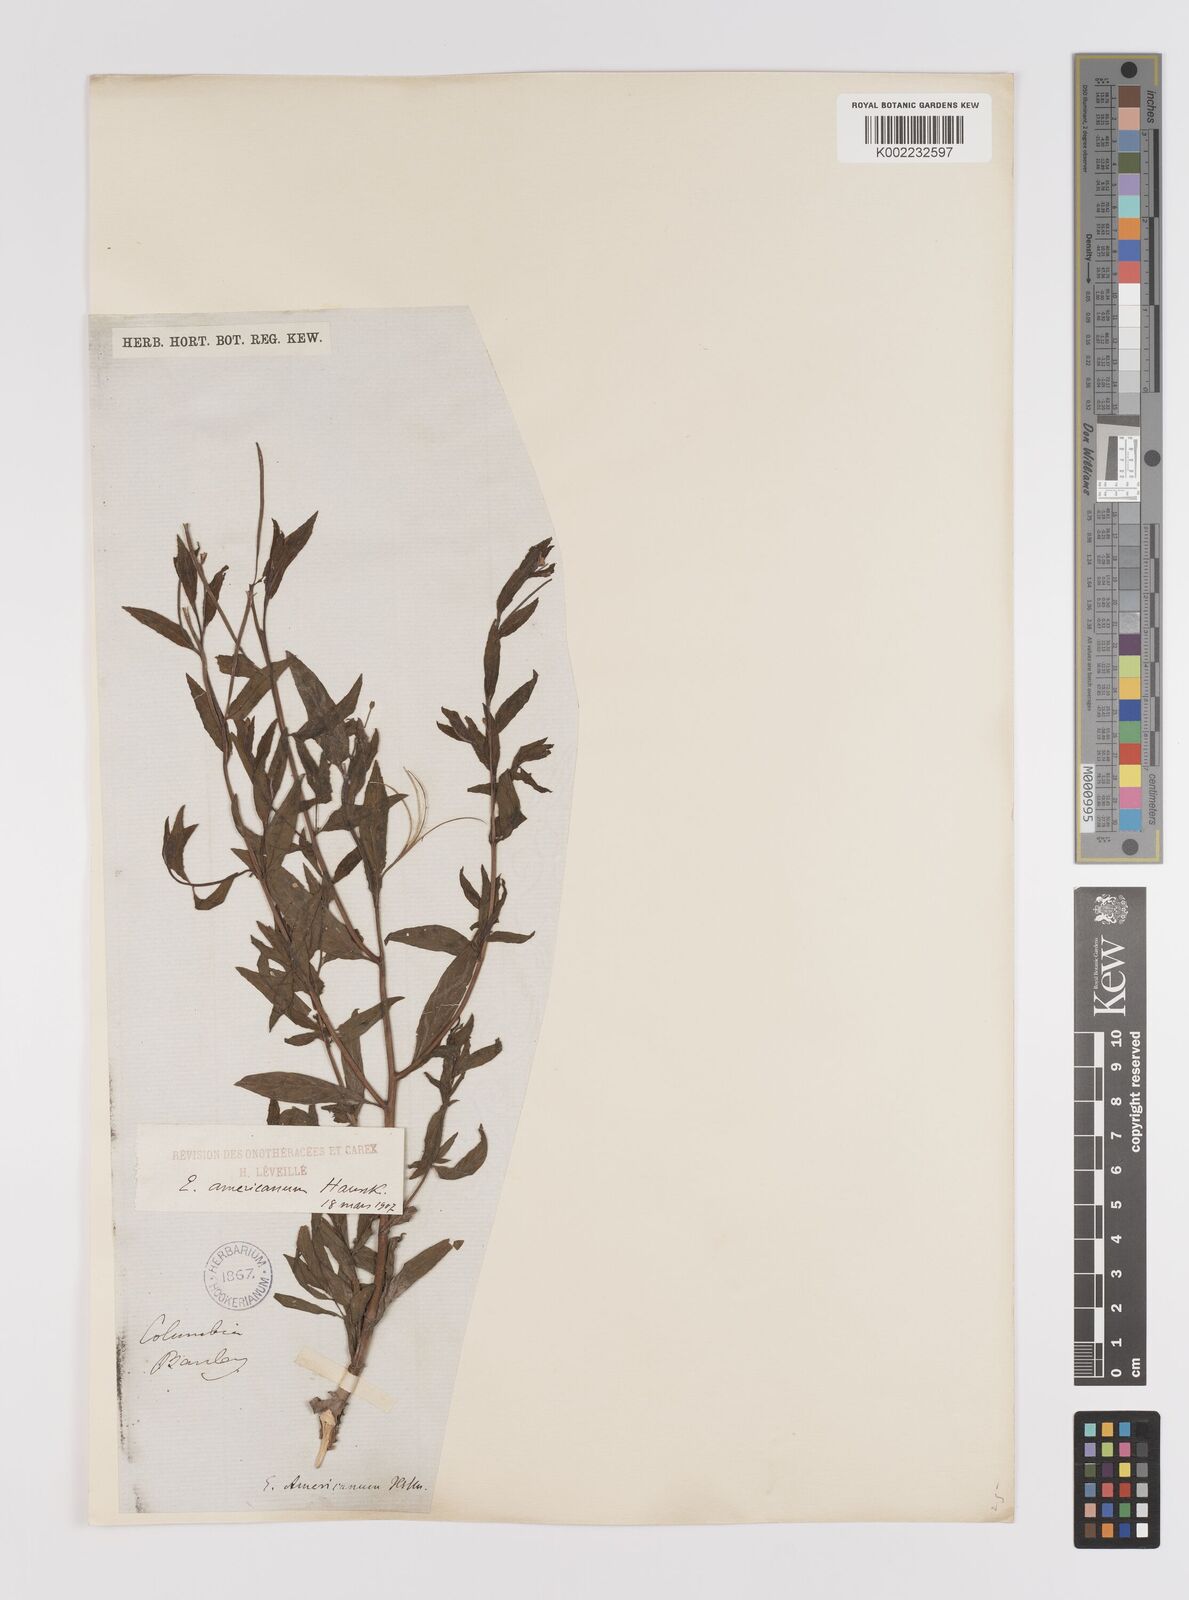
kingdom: Plantae
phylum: Tracheophyta
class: Magnoliopsida
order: Myrtales
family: Onagraceae
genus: Epilobium
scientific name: Epilobium ciliatum
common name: American willowherb
